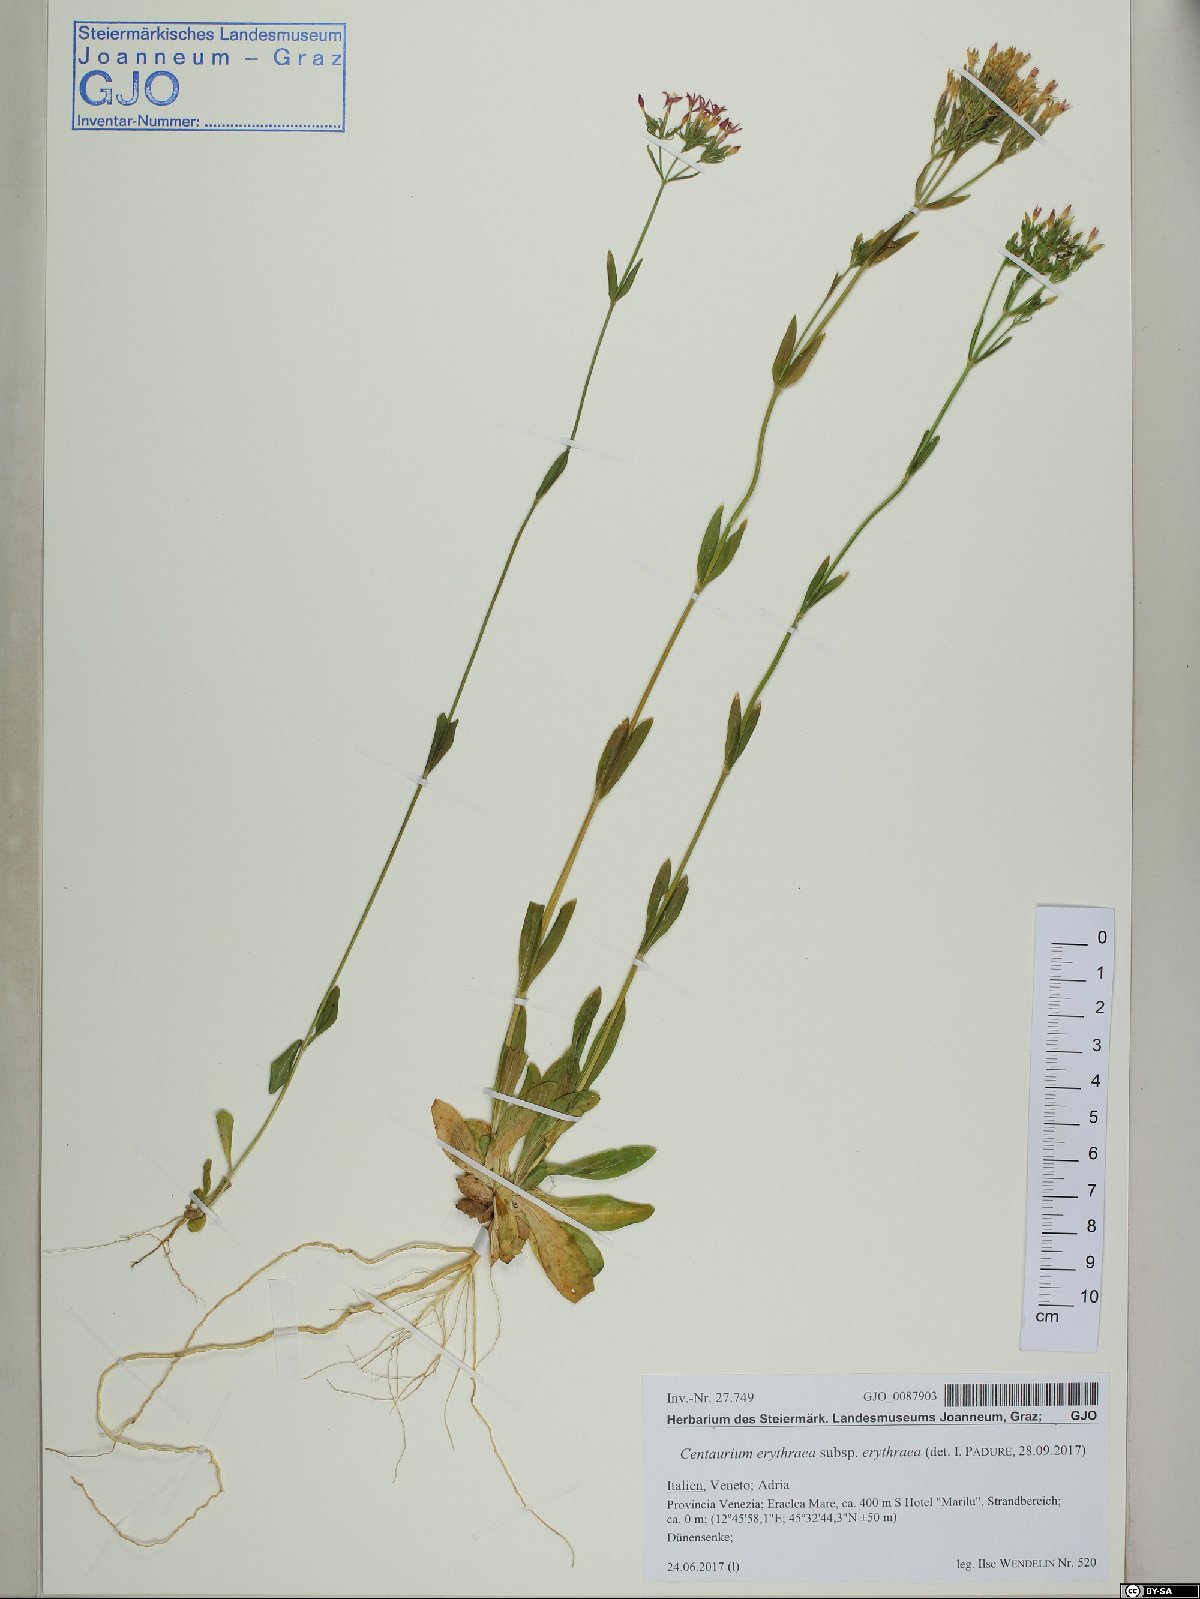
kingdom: Plantae
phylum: Tracheophyta
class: Magnoliopsida
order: Gentianales
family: Gentianaceae
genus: Centaurium
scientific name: Centaurium erythraea
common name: Common centaury
